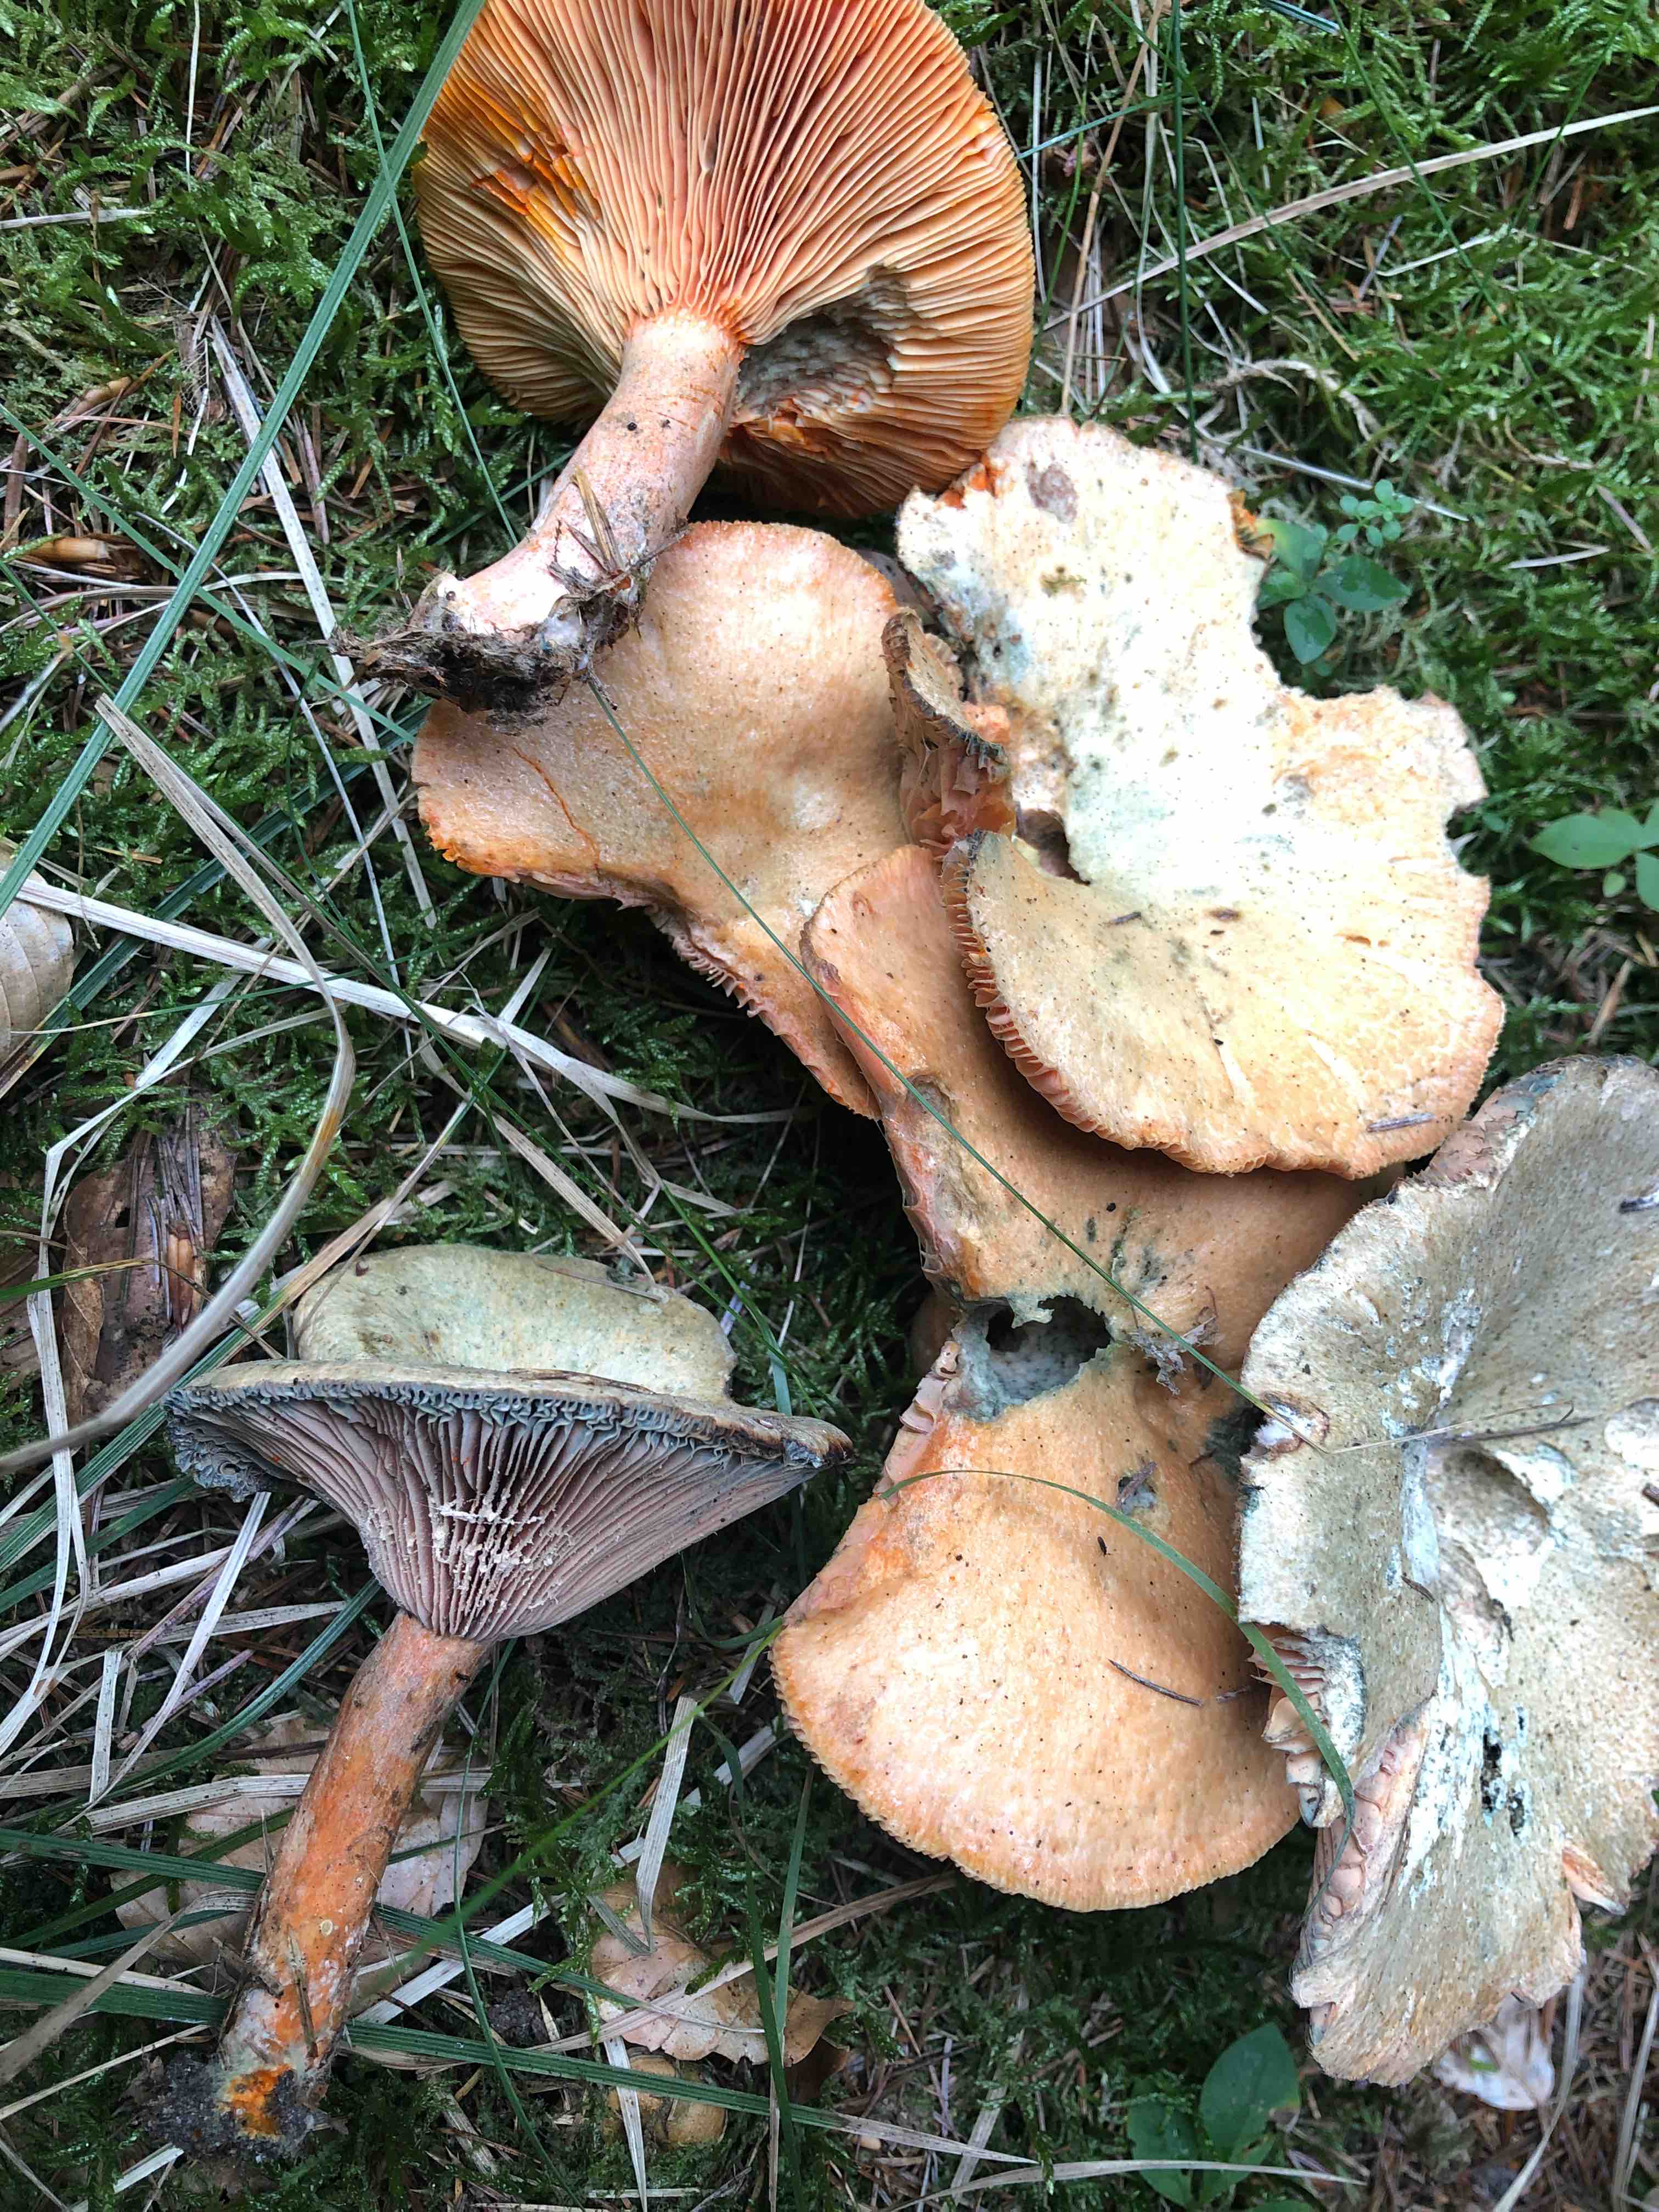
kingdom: Fungi
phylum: Basidiomycota
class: Agaricomycetes
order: Russulales
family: Russulaceae
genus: Lactarius
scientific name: Lactarius deterrimus
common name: gran-mælkehat
